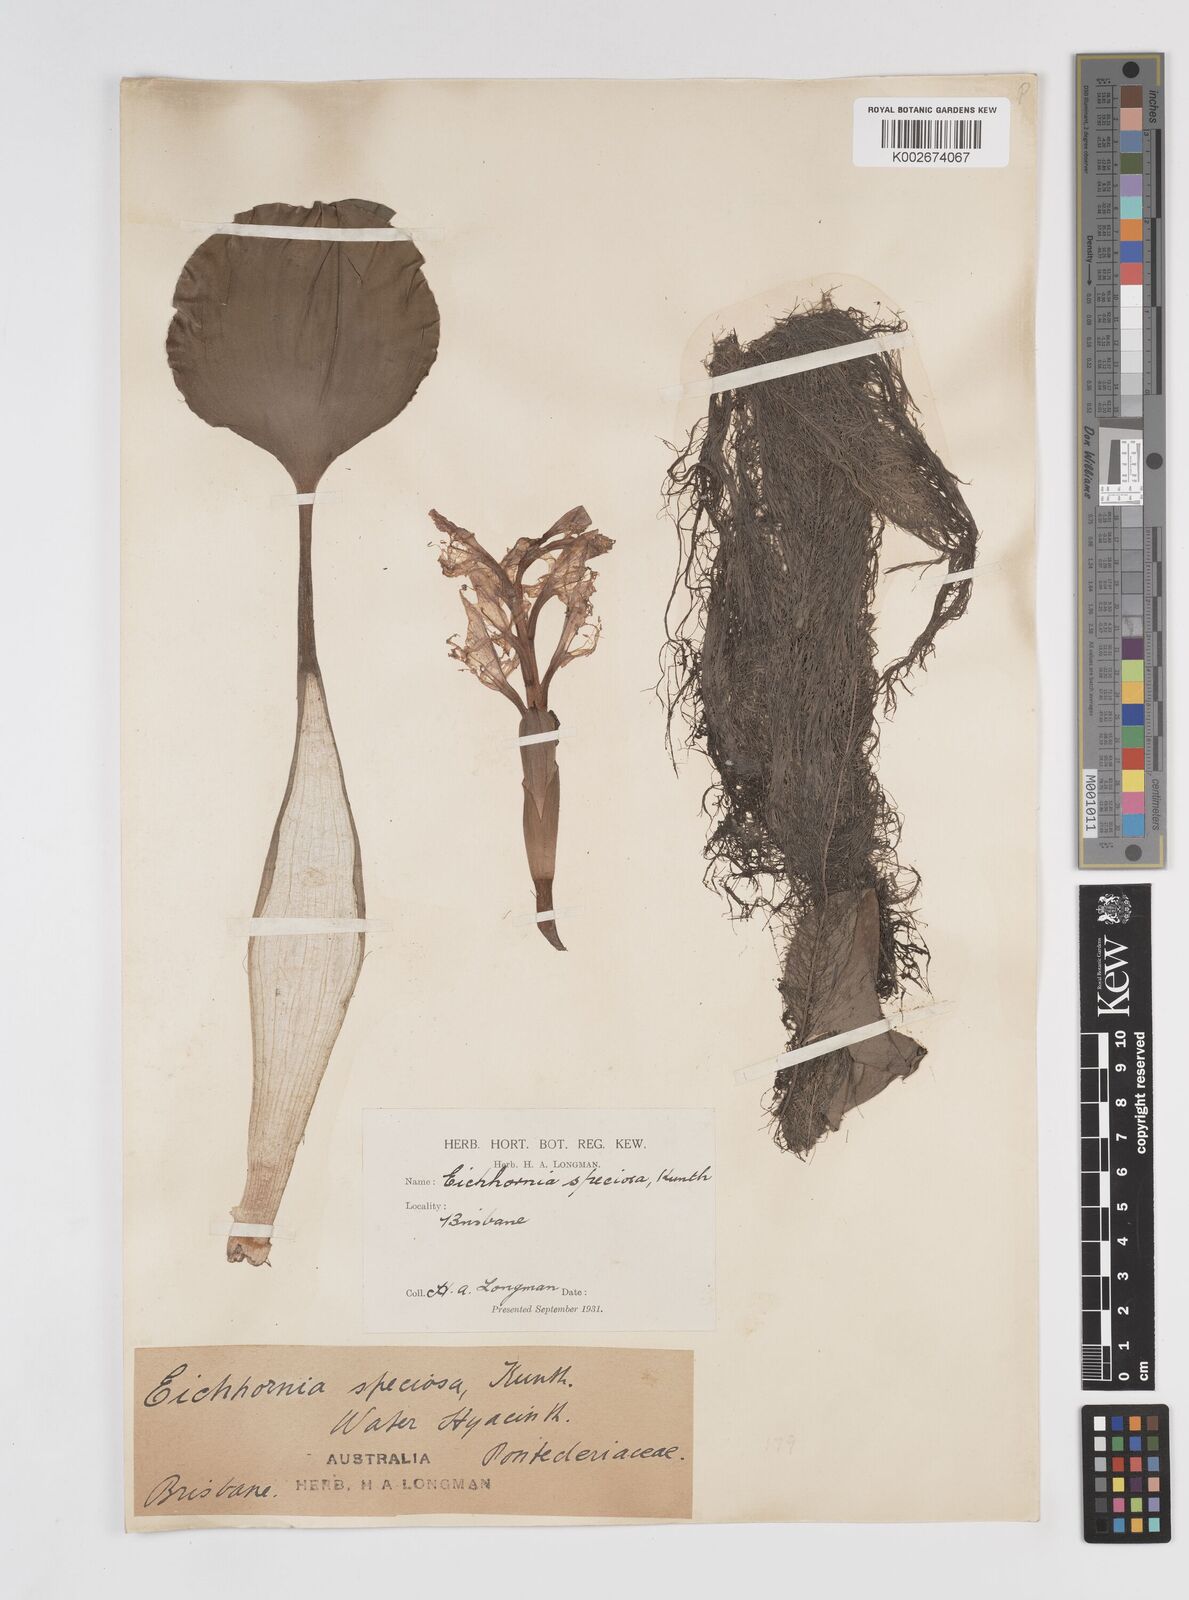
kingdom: Plantae
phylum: Tracheophyta
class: Liliopsida
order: Commelinales
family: Pontederiaceae
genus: Pontederia
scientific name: Pontederia crassipes
